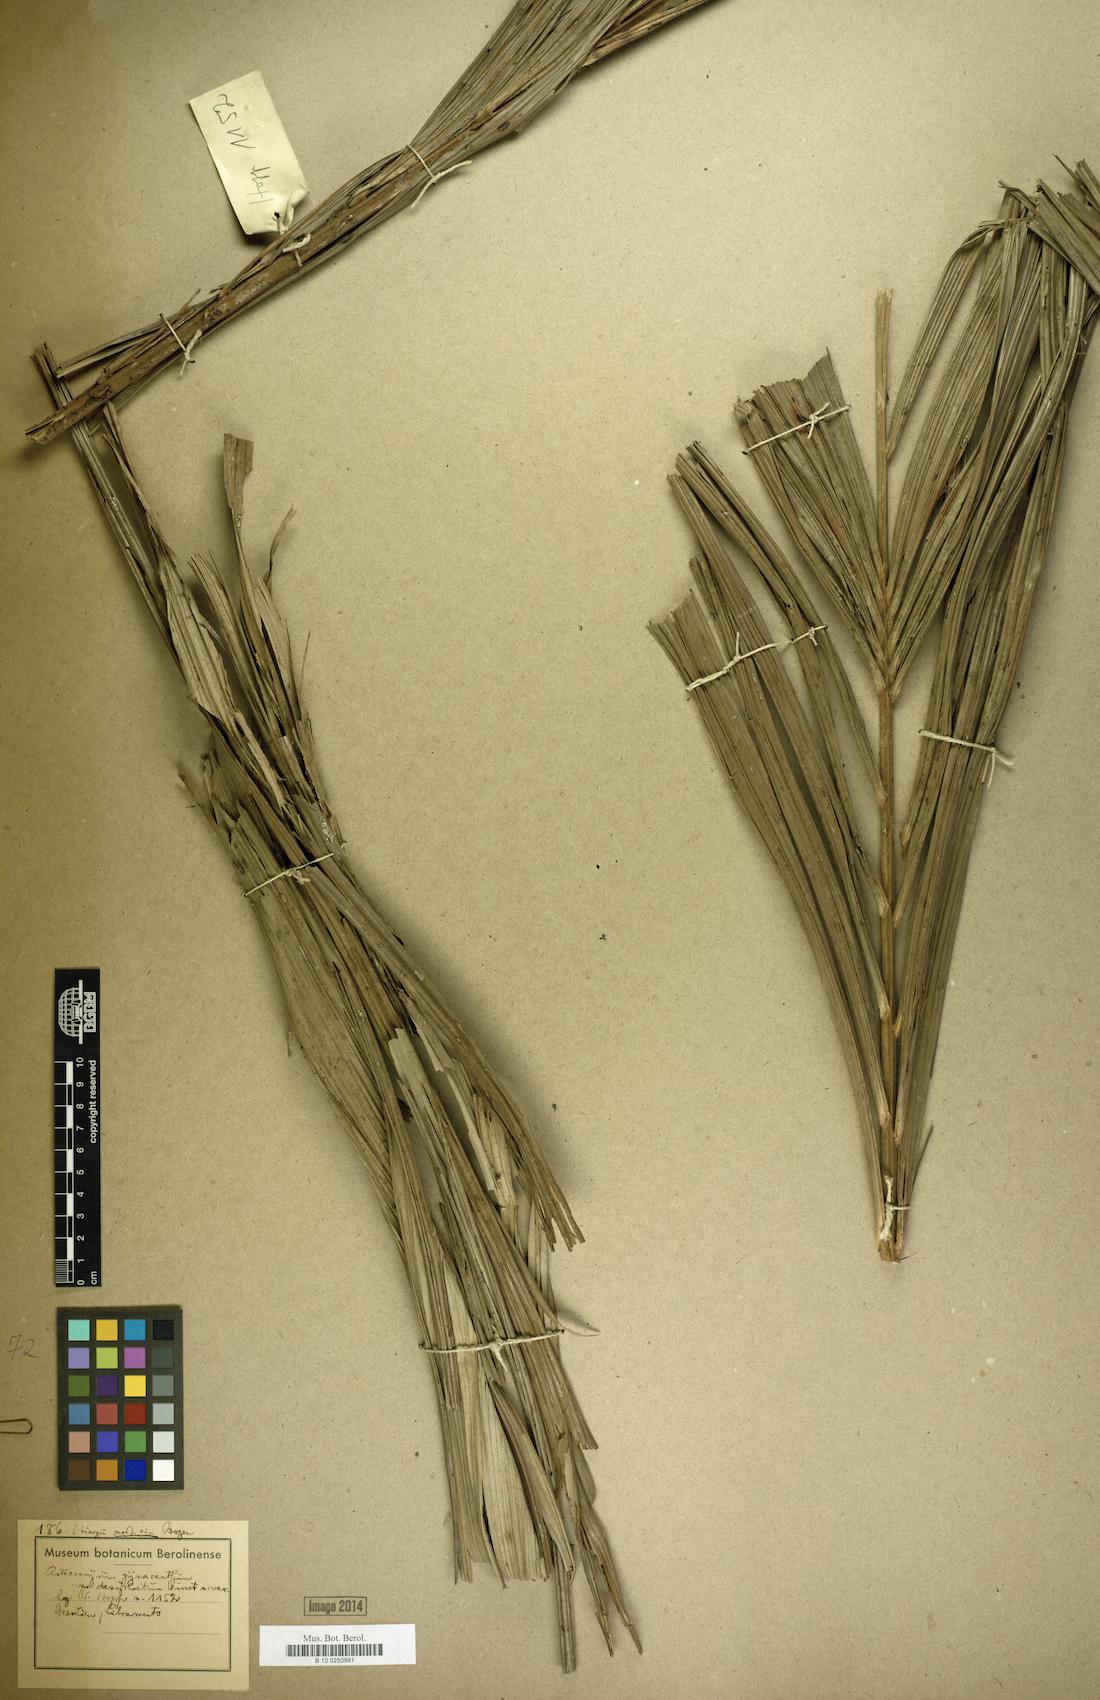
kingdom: Plantae
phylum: Tracheophyta
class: Liliopsida
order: Arecales
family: Arecaceae
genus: Astrocaryum
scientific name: Astrocaryum aculeatum
